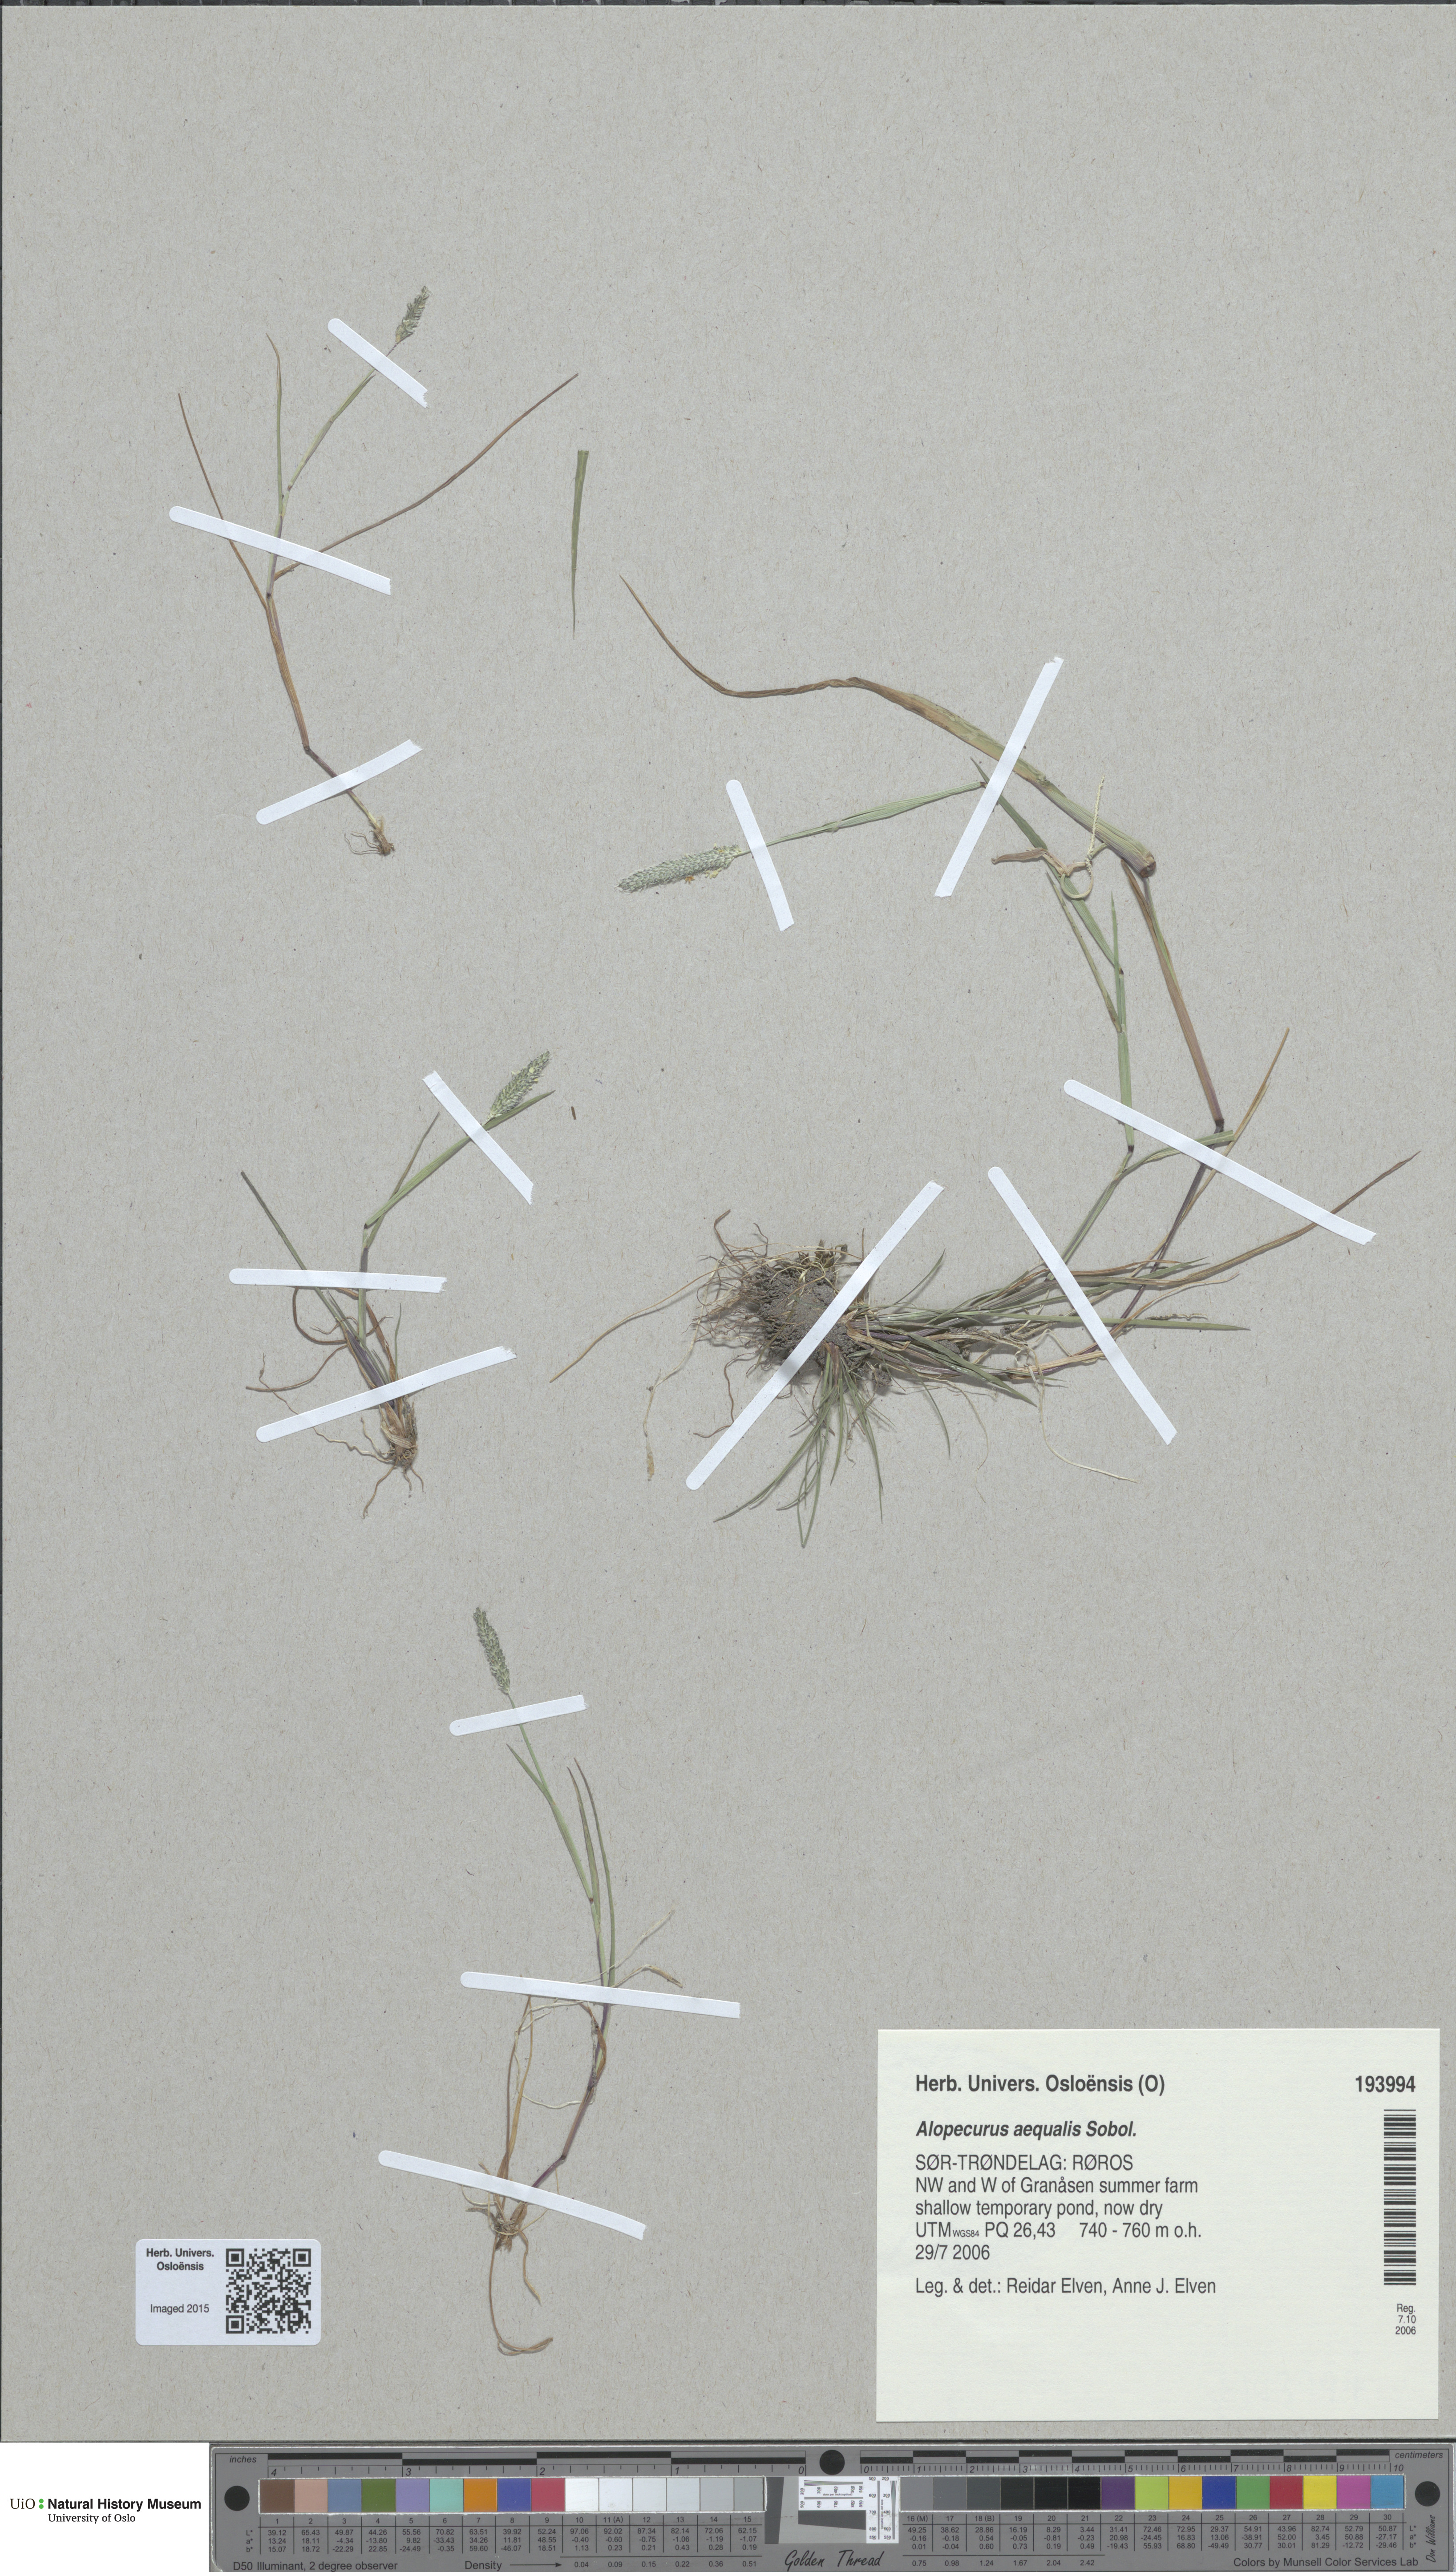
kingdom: Plantae
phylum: Tracheophyta
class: Liliopsida
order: Poales
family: Poaceae
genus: Alopecurus
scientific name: Alopecurus aequalis
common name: Orange foxtail
